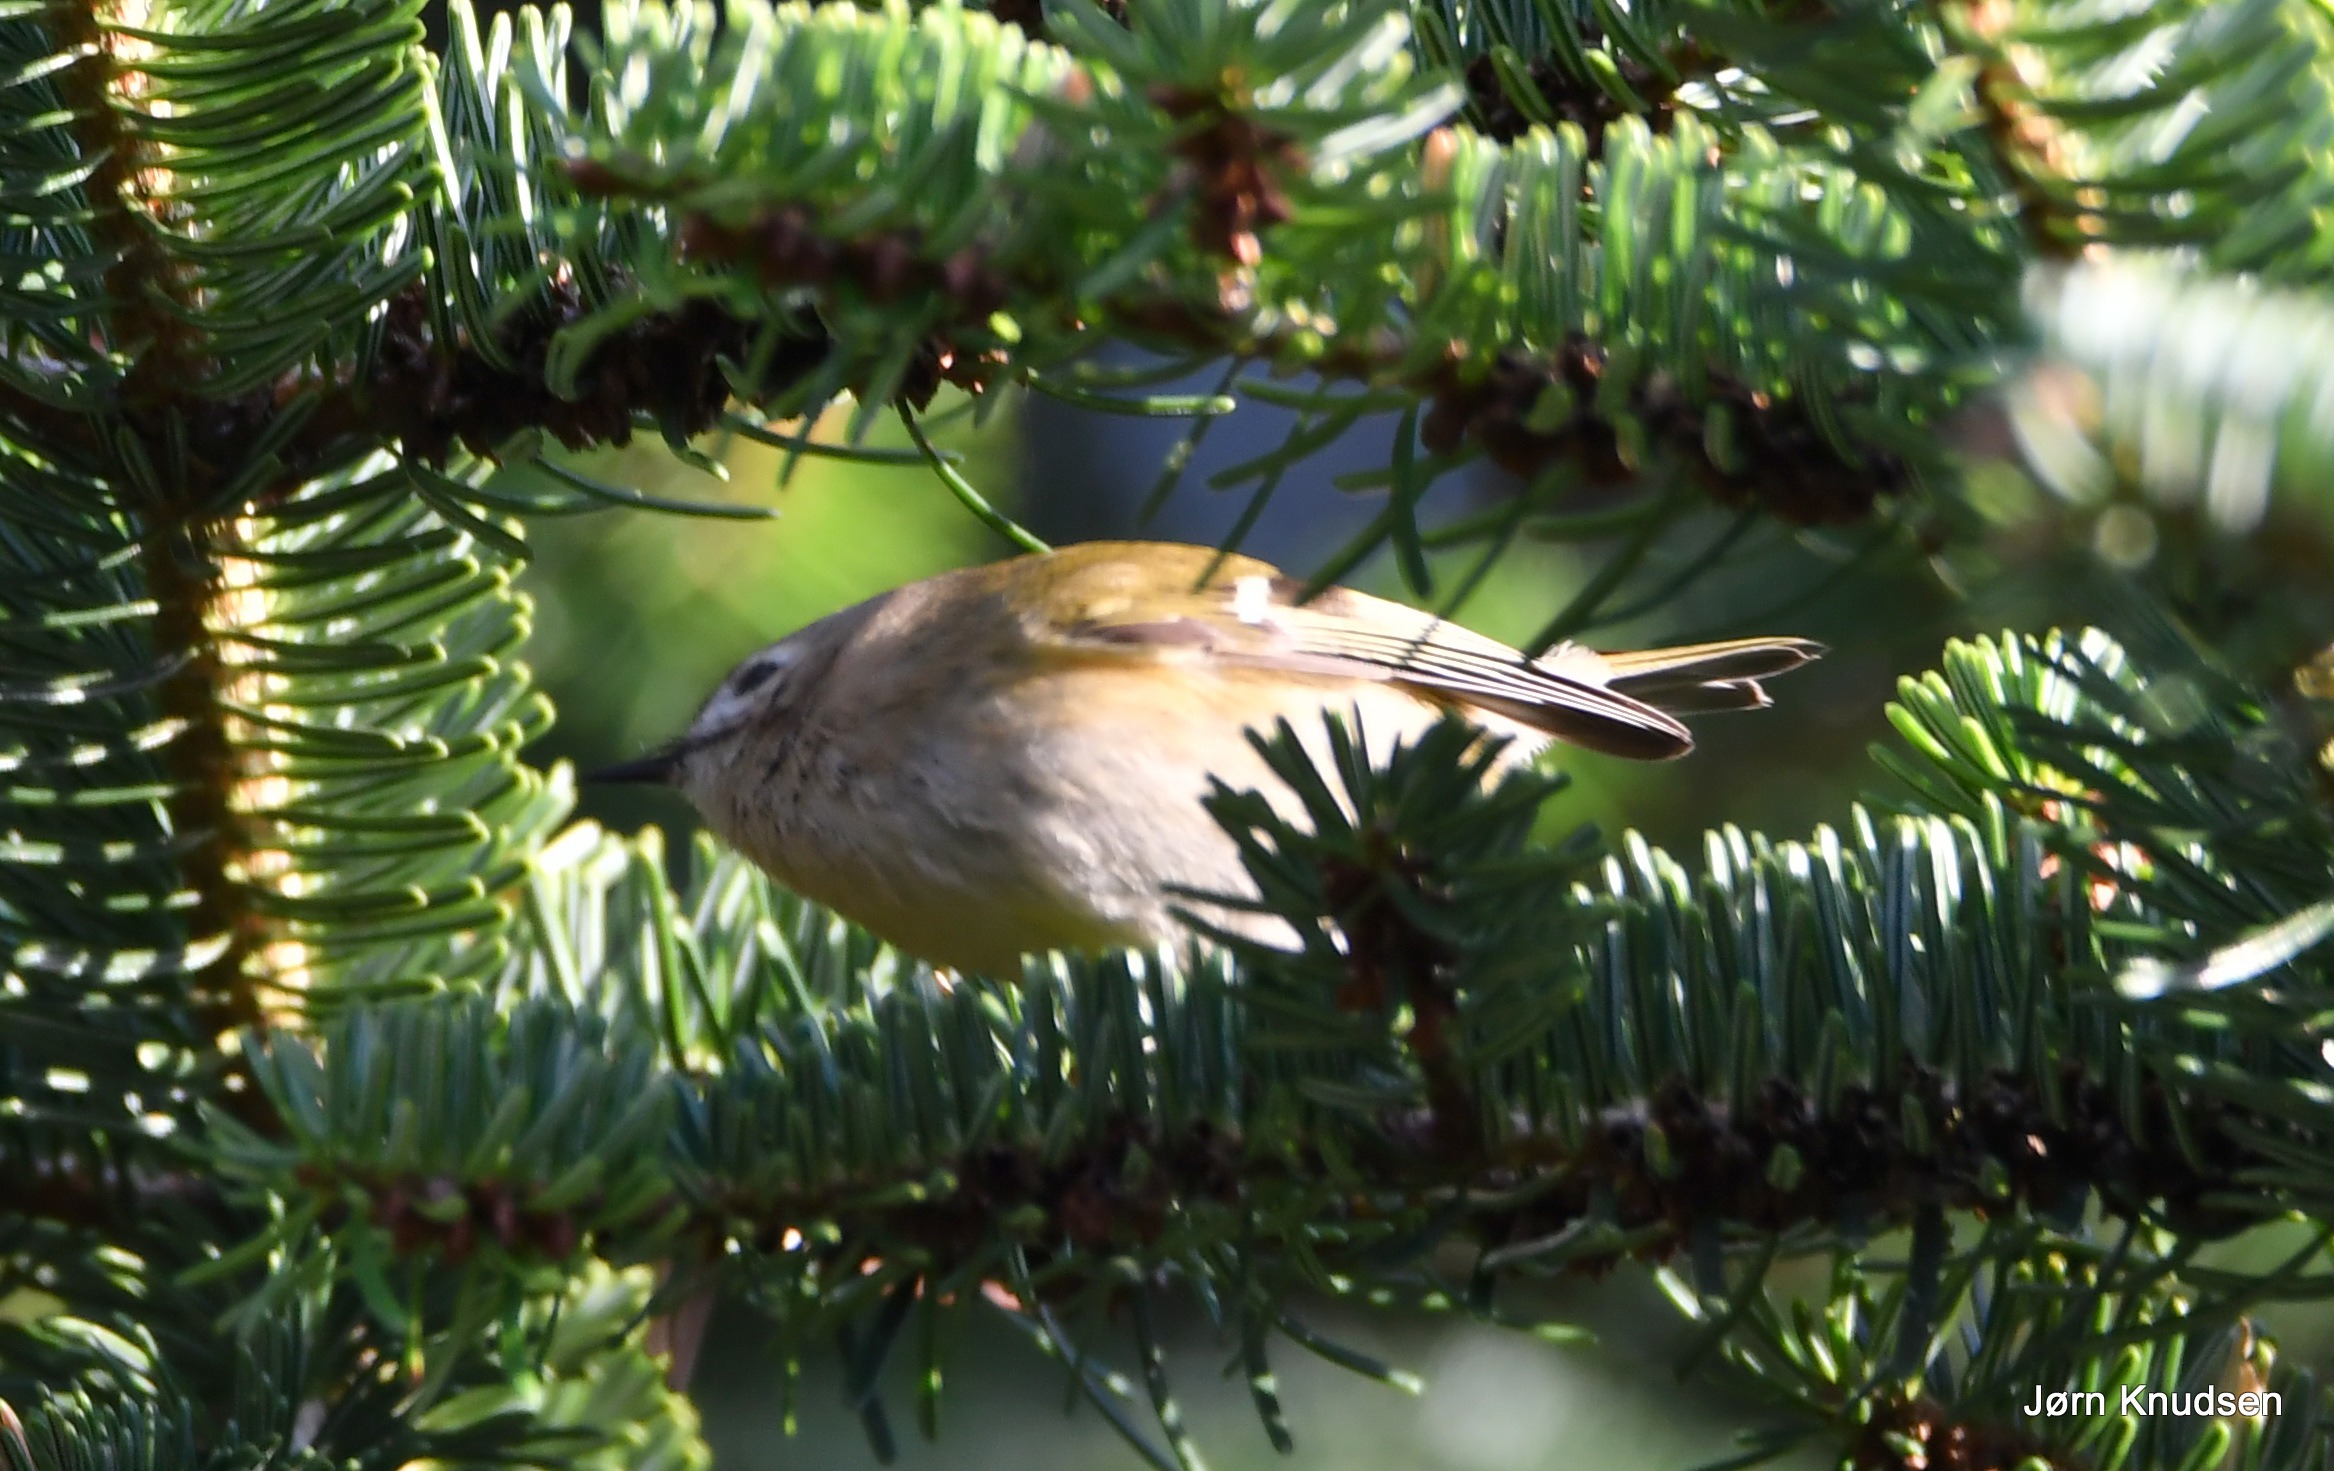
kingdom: Animalia
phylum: Chordata
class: Aves
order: Passeriformes
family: Regulidae
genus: Regulus
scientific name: Regulus regulus
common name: Fuglekonge
